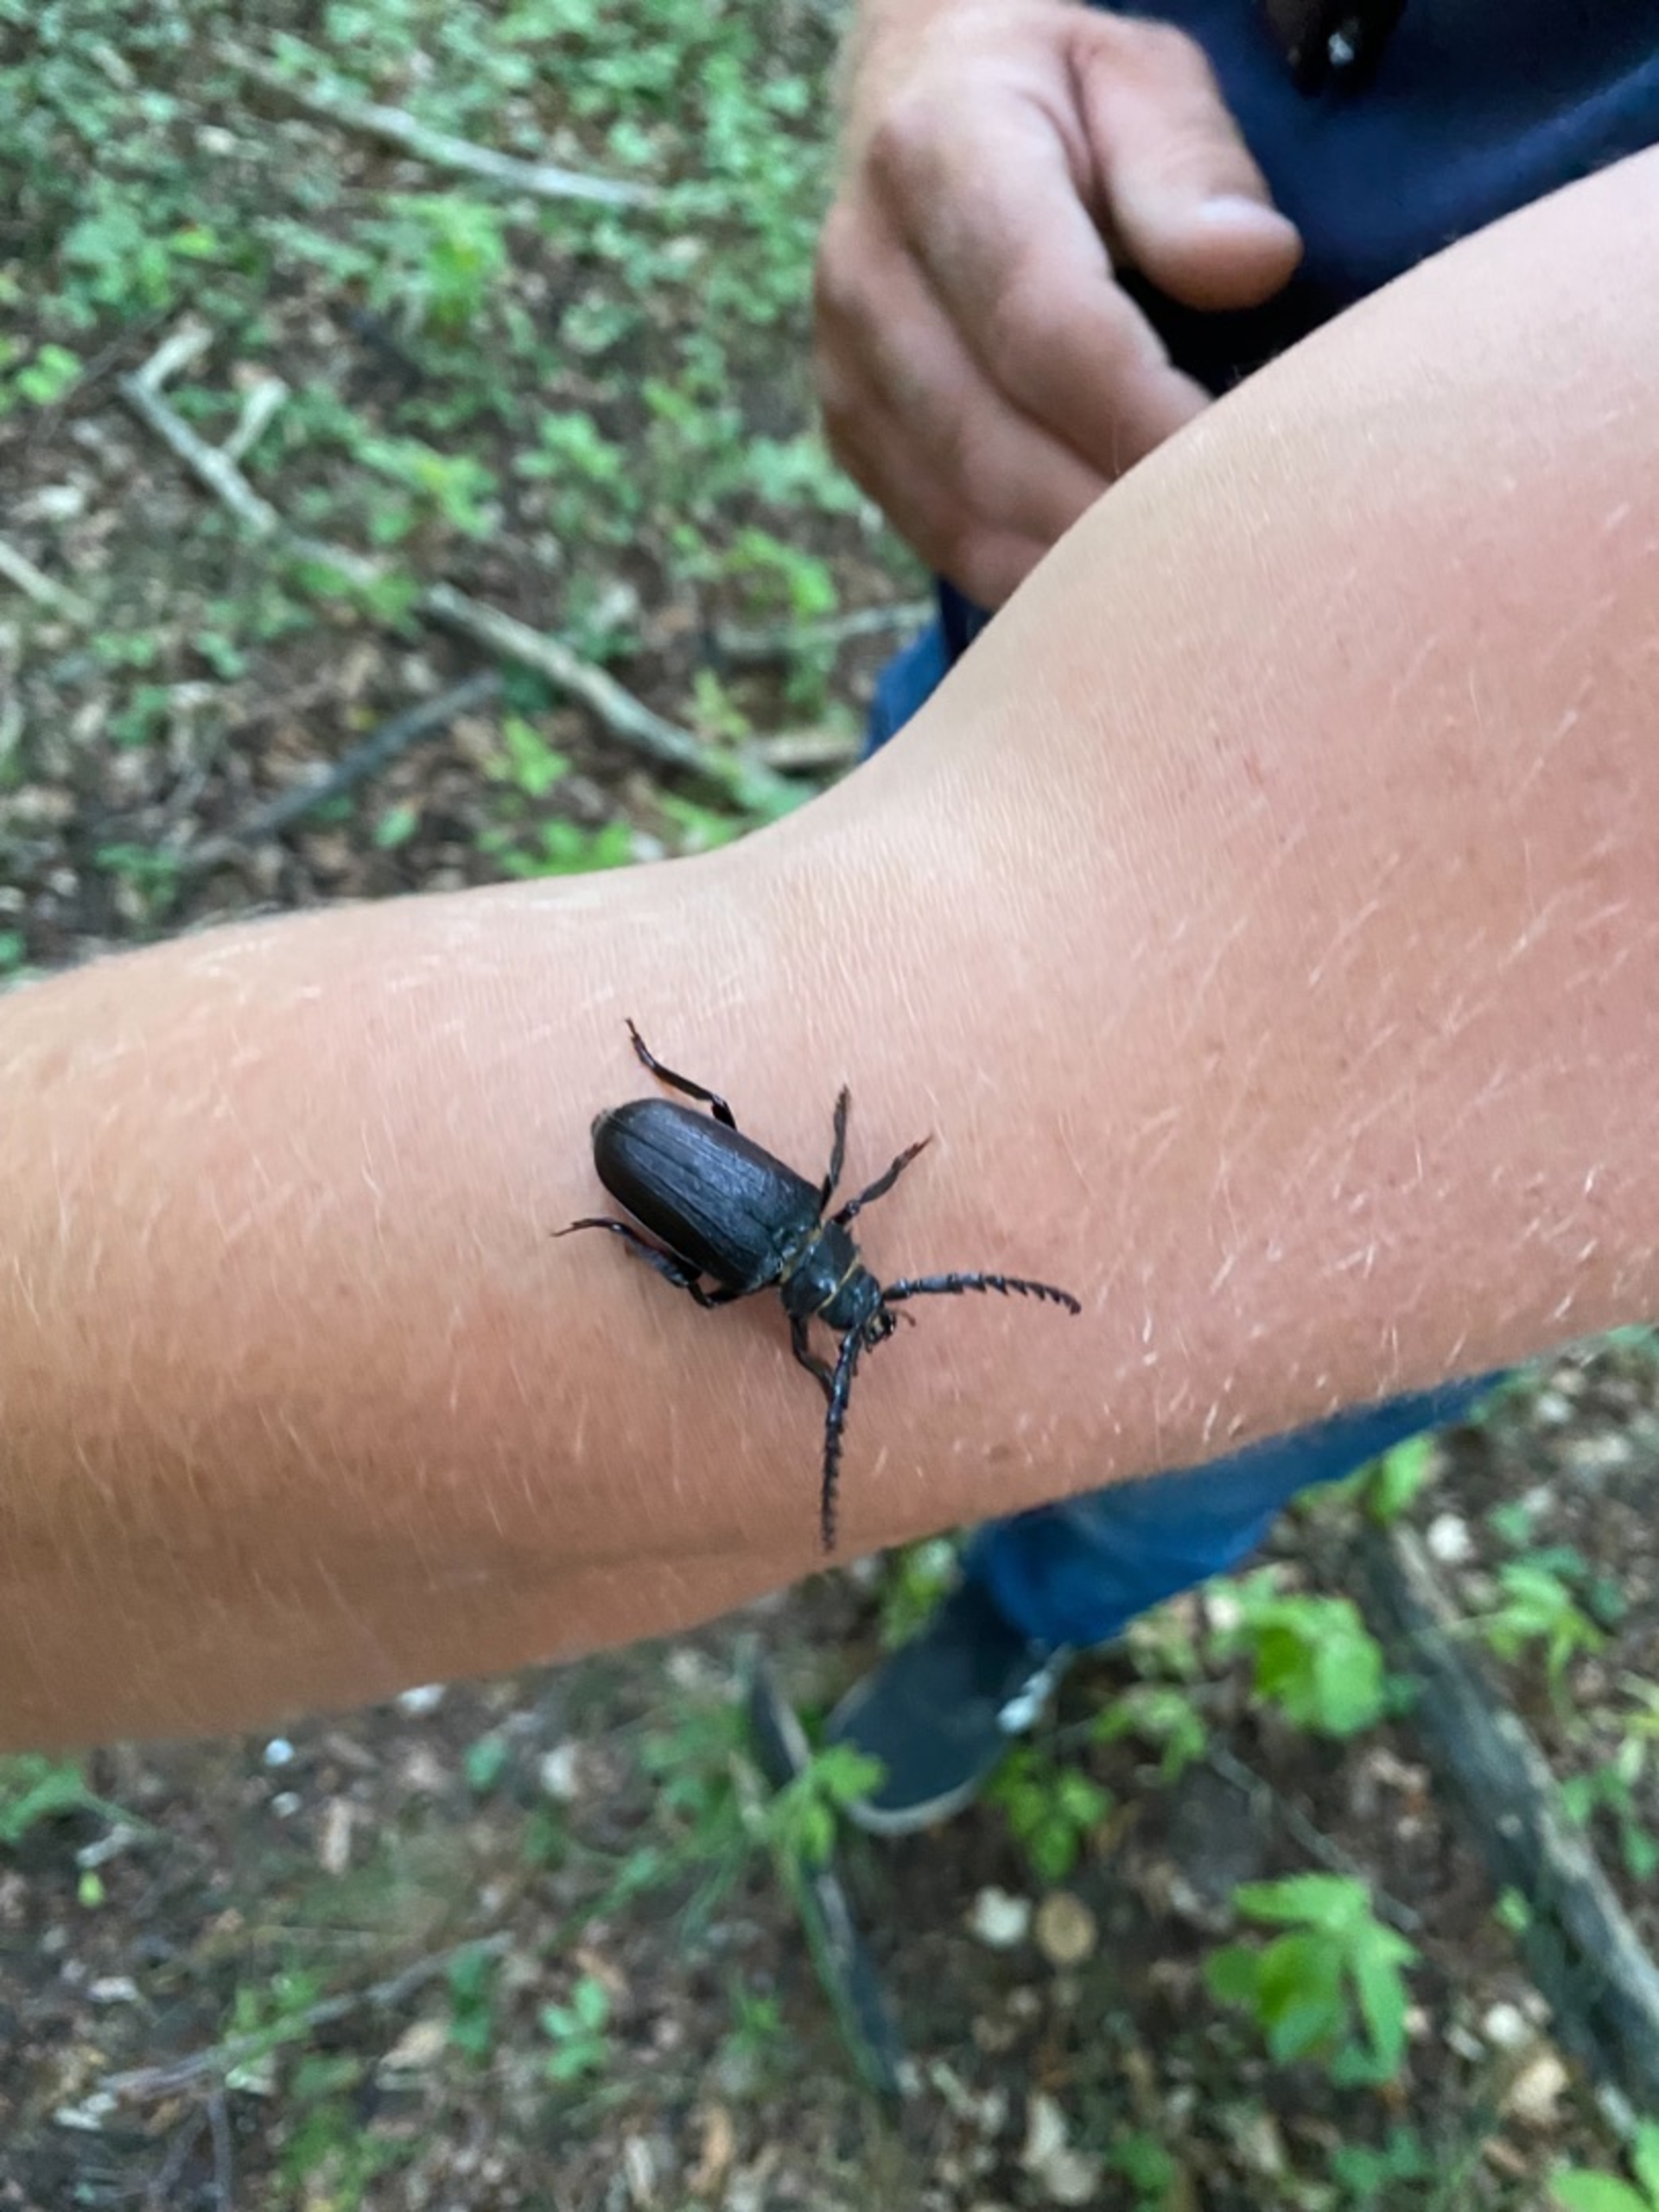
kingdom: Animalia
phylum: Arthropoda
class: Insecta
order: Coleoptera
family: Cerambycidae
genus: Prionus
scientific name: Prionus coriarius
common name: Garver
